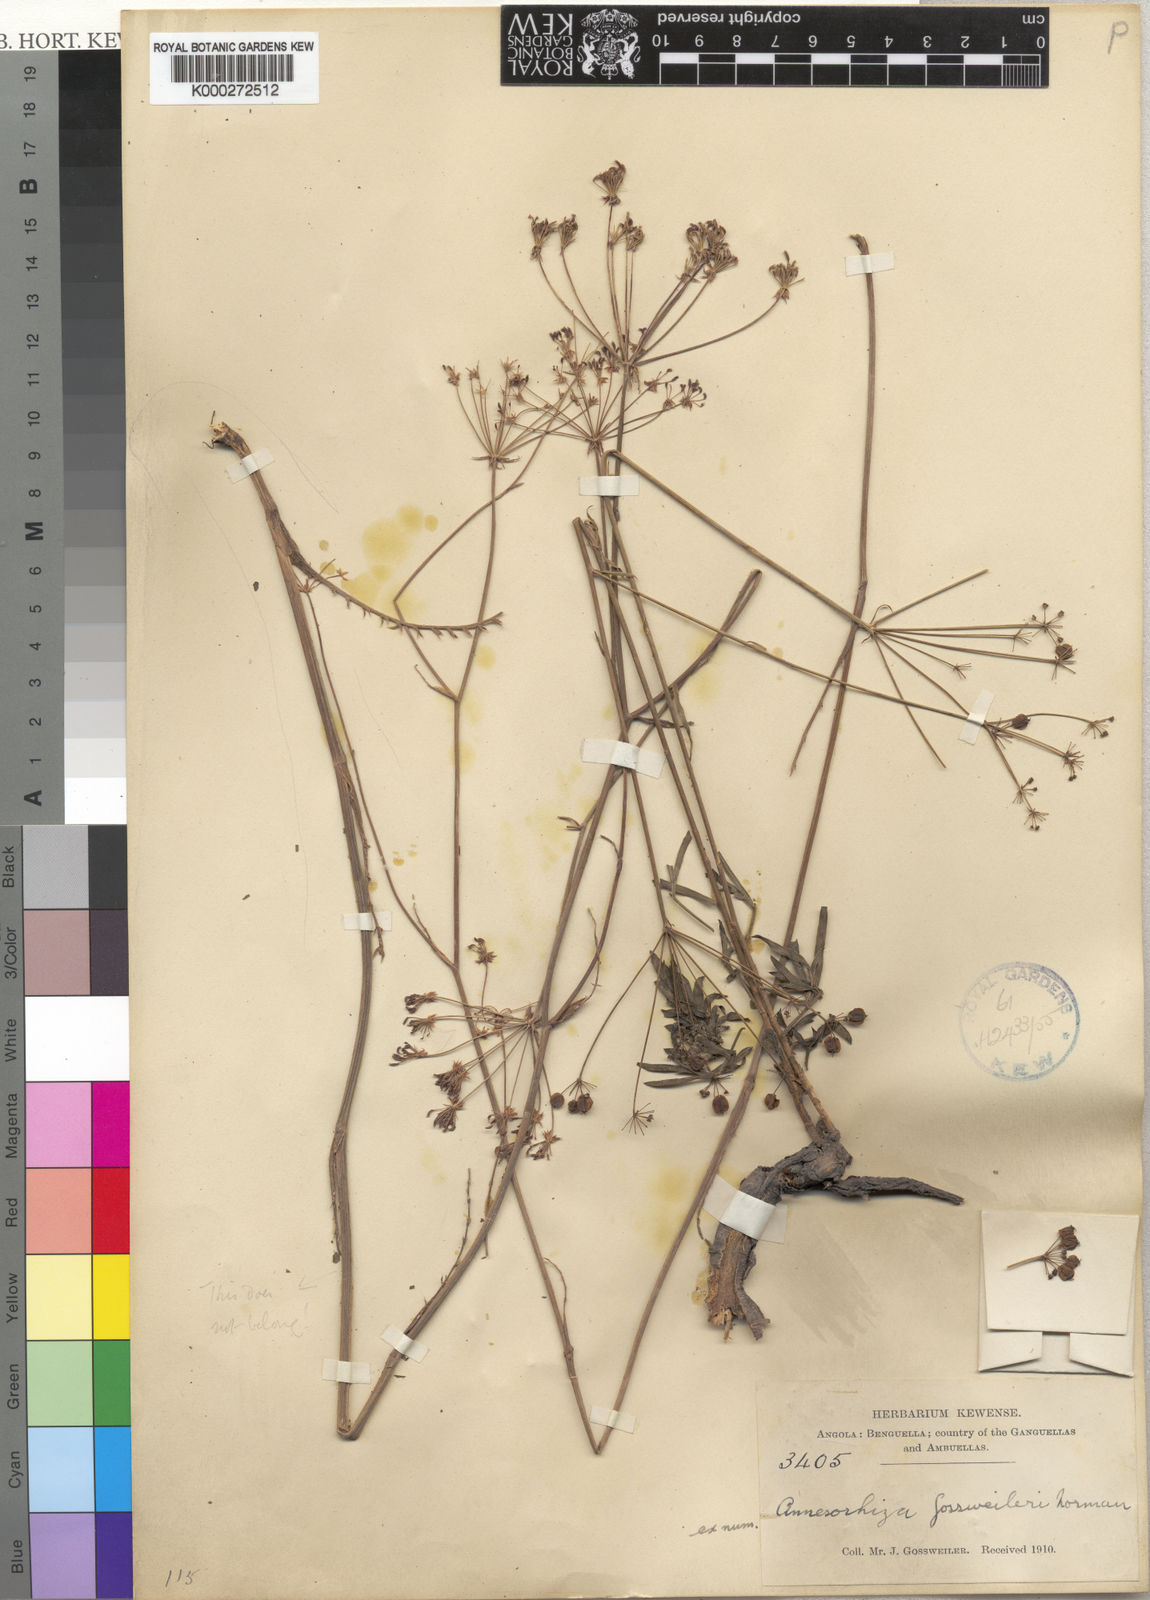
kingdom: Plantae
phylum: Tracheophyta
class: Magnoliopsida
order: Apiales
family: Apiaceae
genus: Heteromorpha
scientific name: Heteromorpha gossweileri
